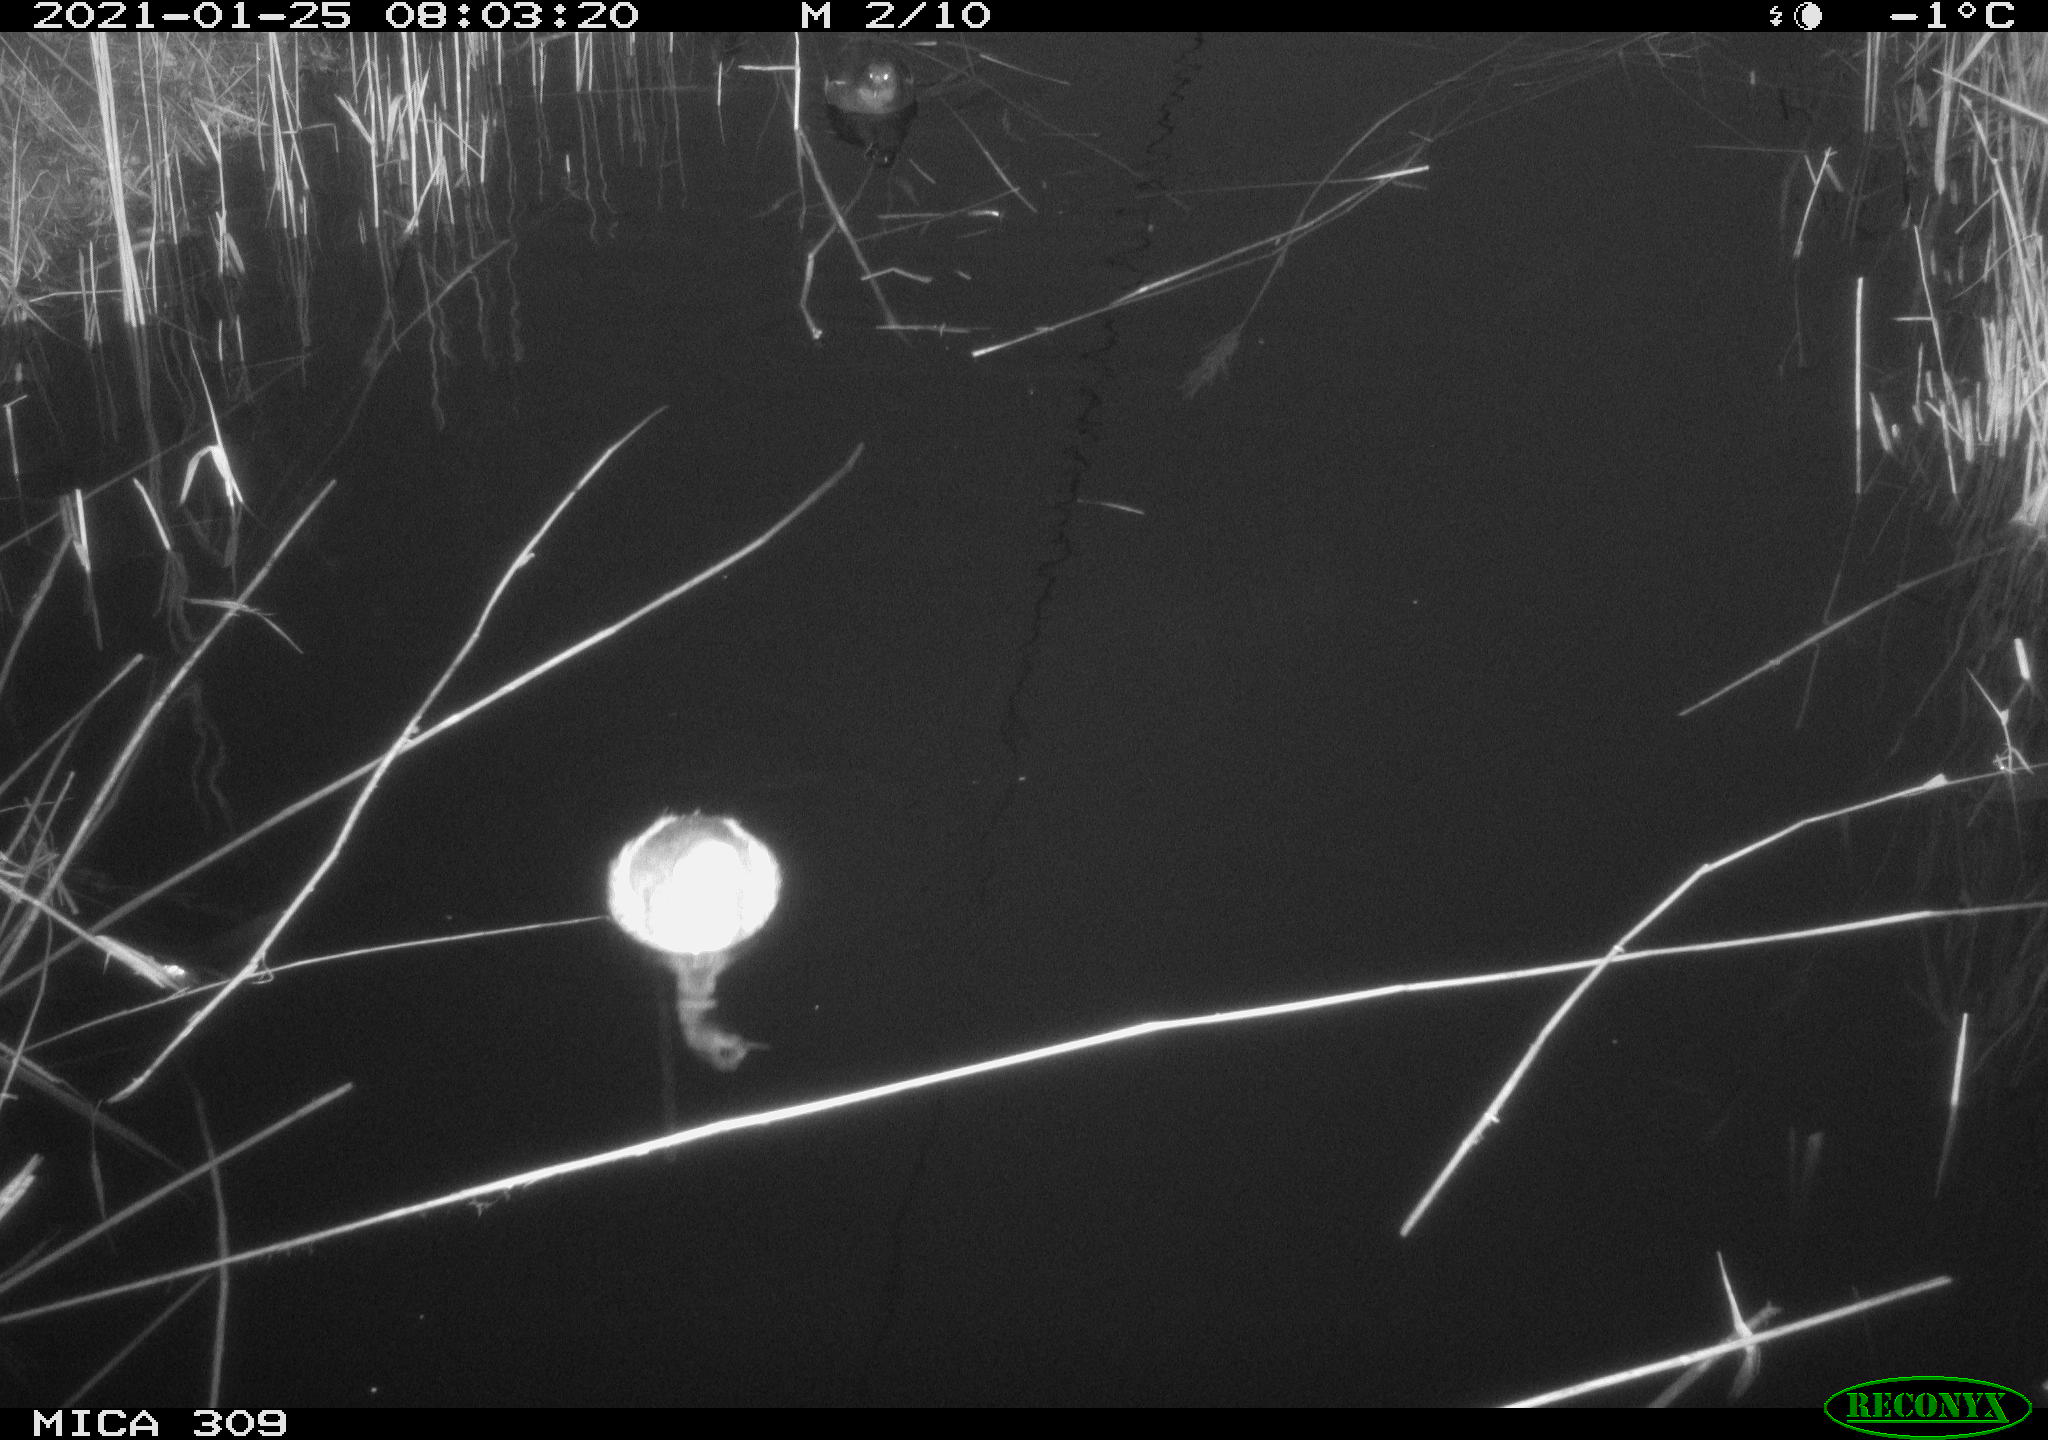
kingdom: Animalia
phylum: Chordata
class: Aves
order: Podicipediformes
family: Podicipedidae
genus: Tachybaptus
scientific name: Tachybaptus ruficollis
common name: Little grebe
